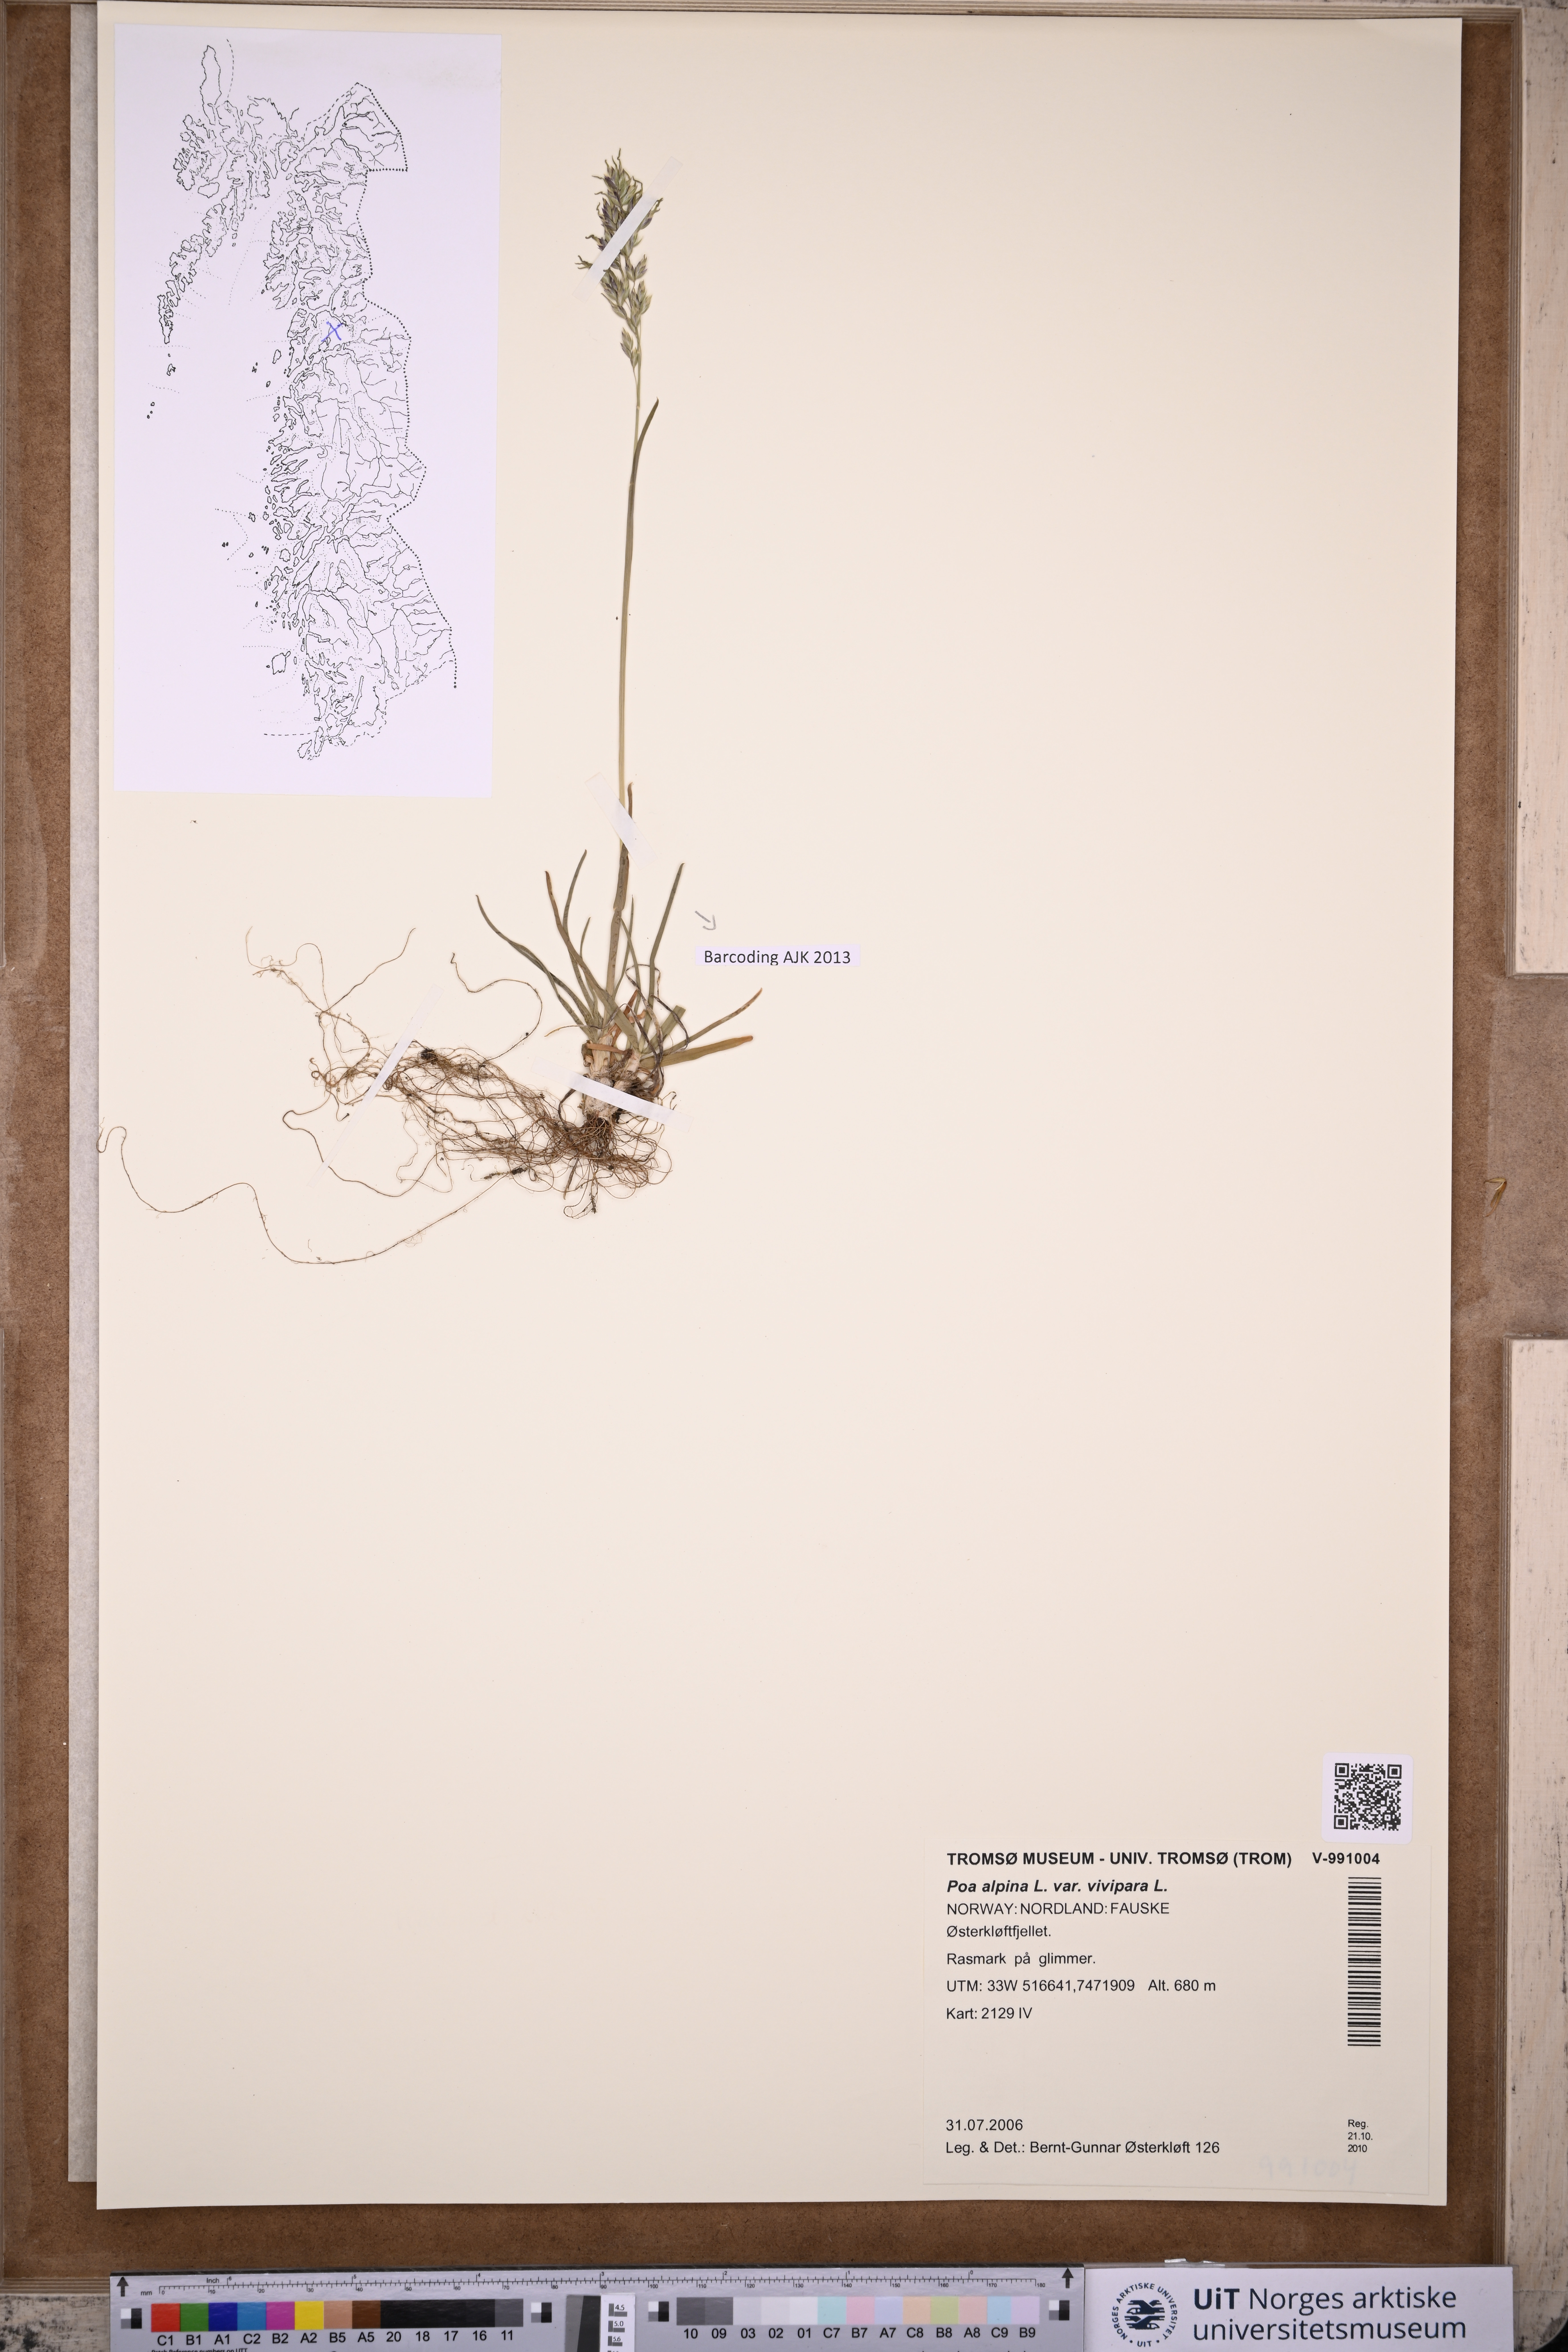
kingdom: Plantae
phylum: Tracheophyta
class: Liliopsida
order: Poales
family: Poaceae
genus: Poa
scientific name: Poa alpina
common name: Alpine bluegrass
